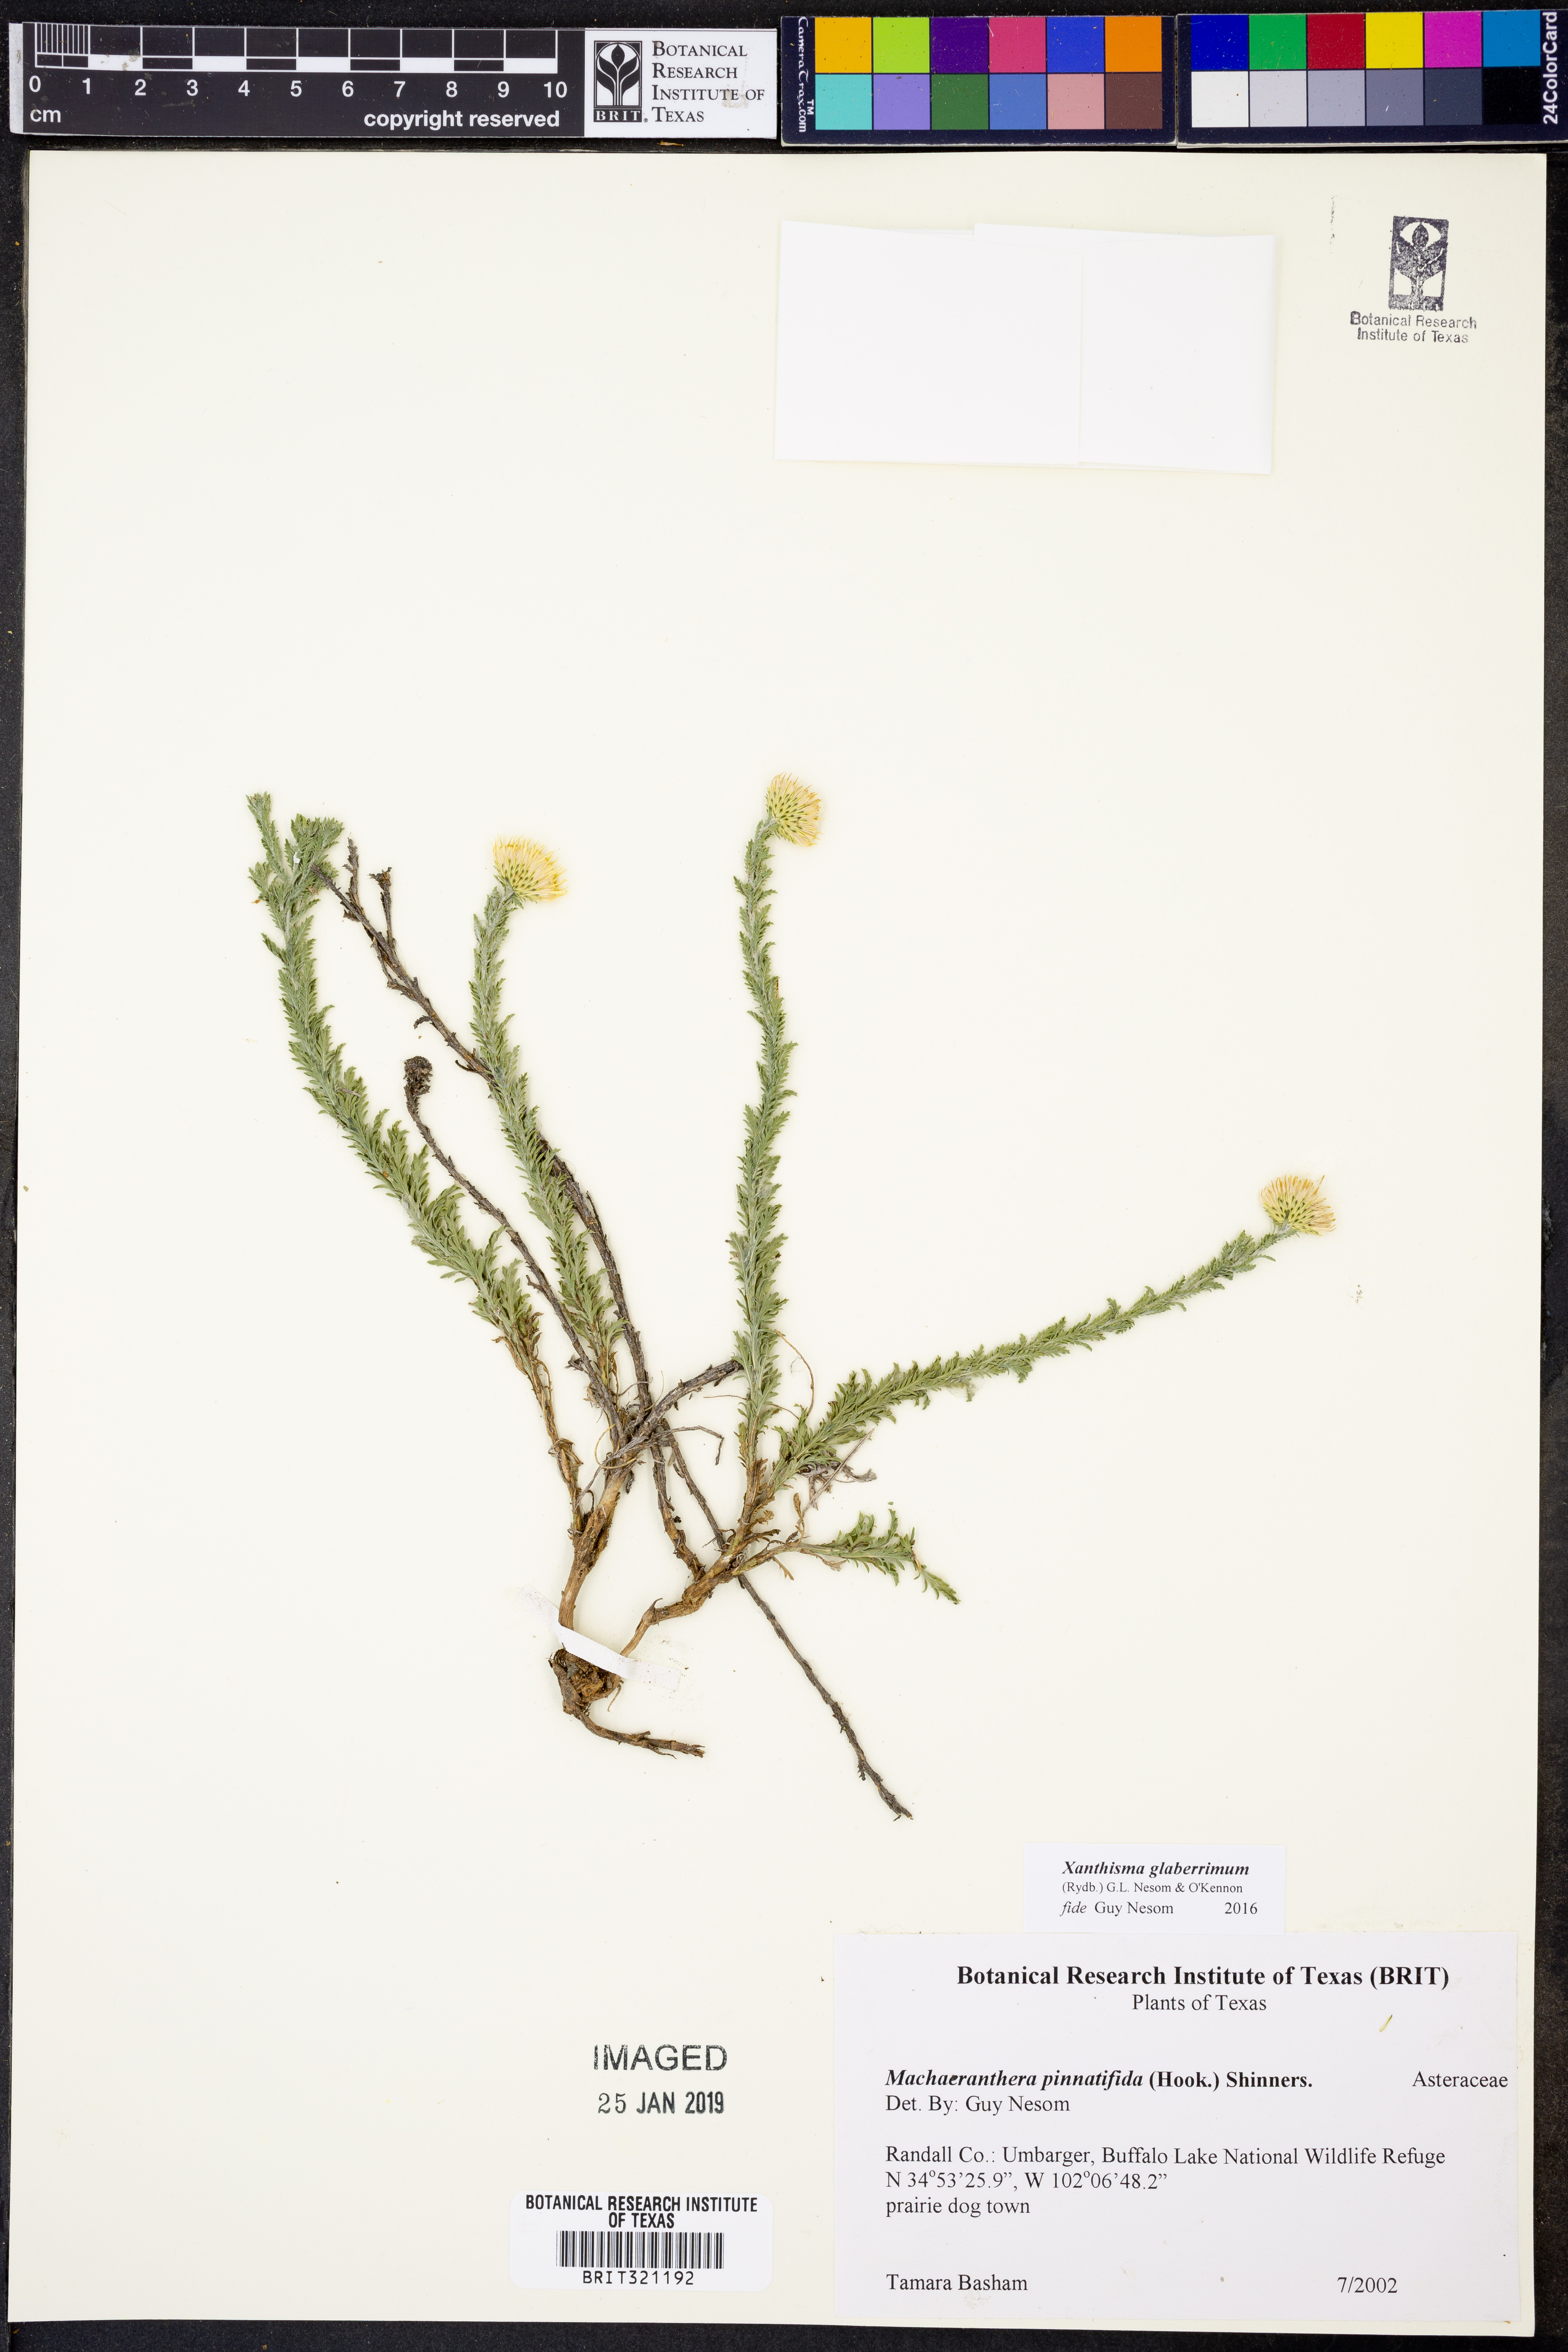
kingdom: Plantae
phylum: Tracheophyta
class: Magnoliopsida
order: Asterales
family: Asteraceae
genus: Xanthisma
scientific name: Xanthisma spinulosum
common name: Spiny goldenweed
